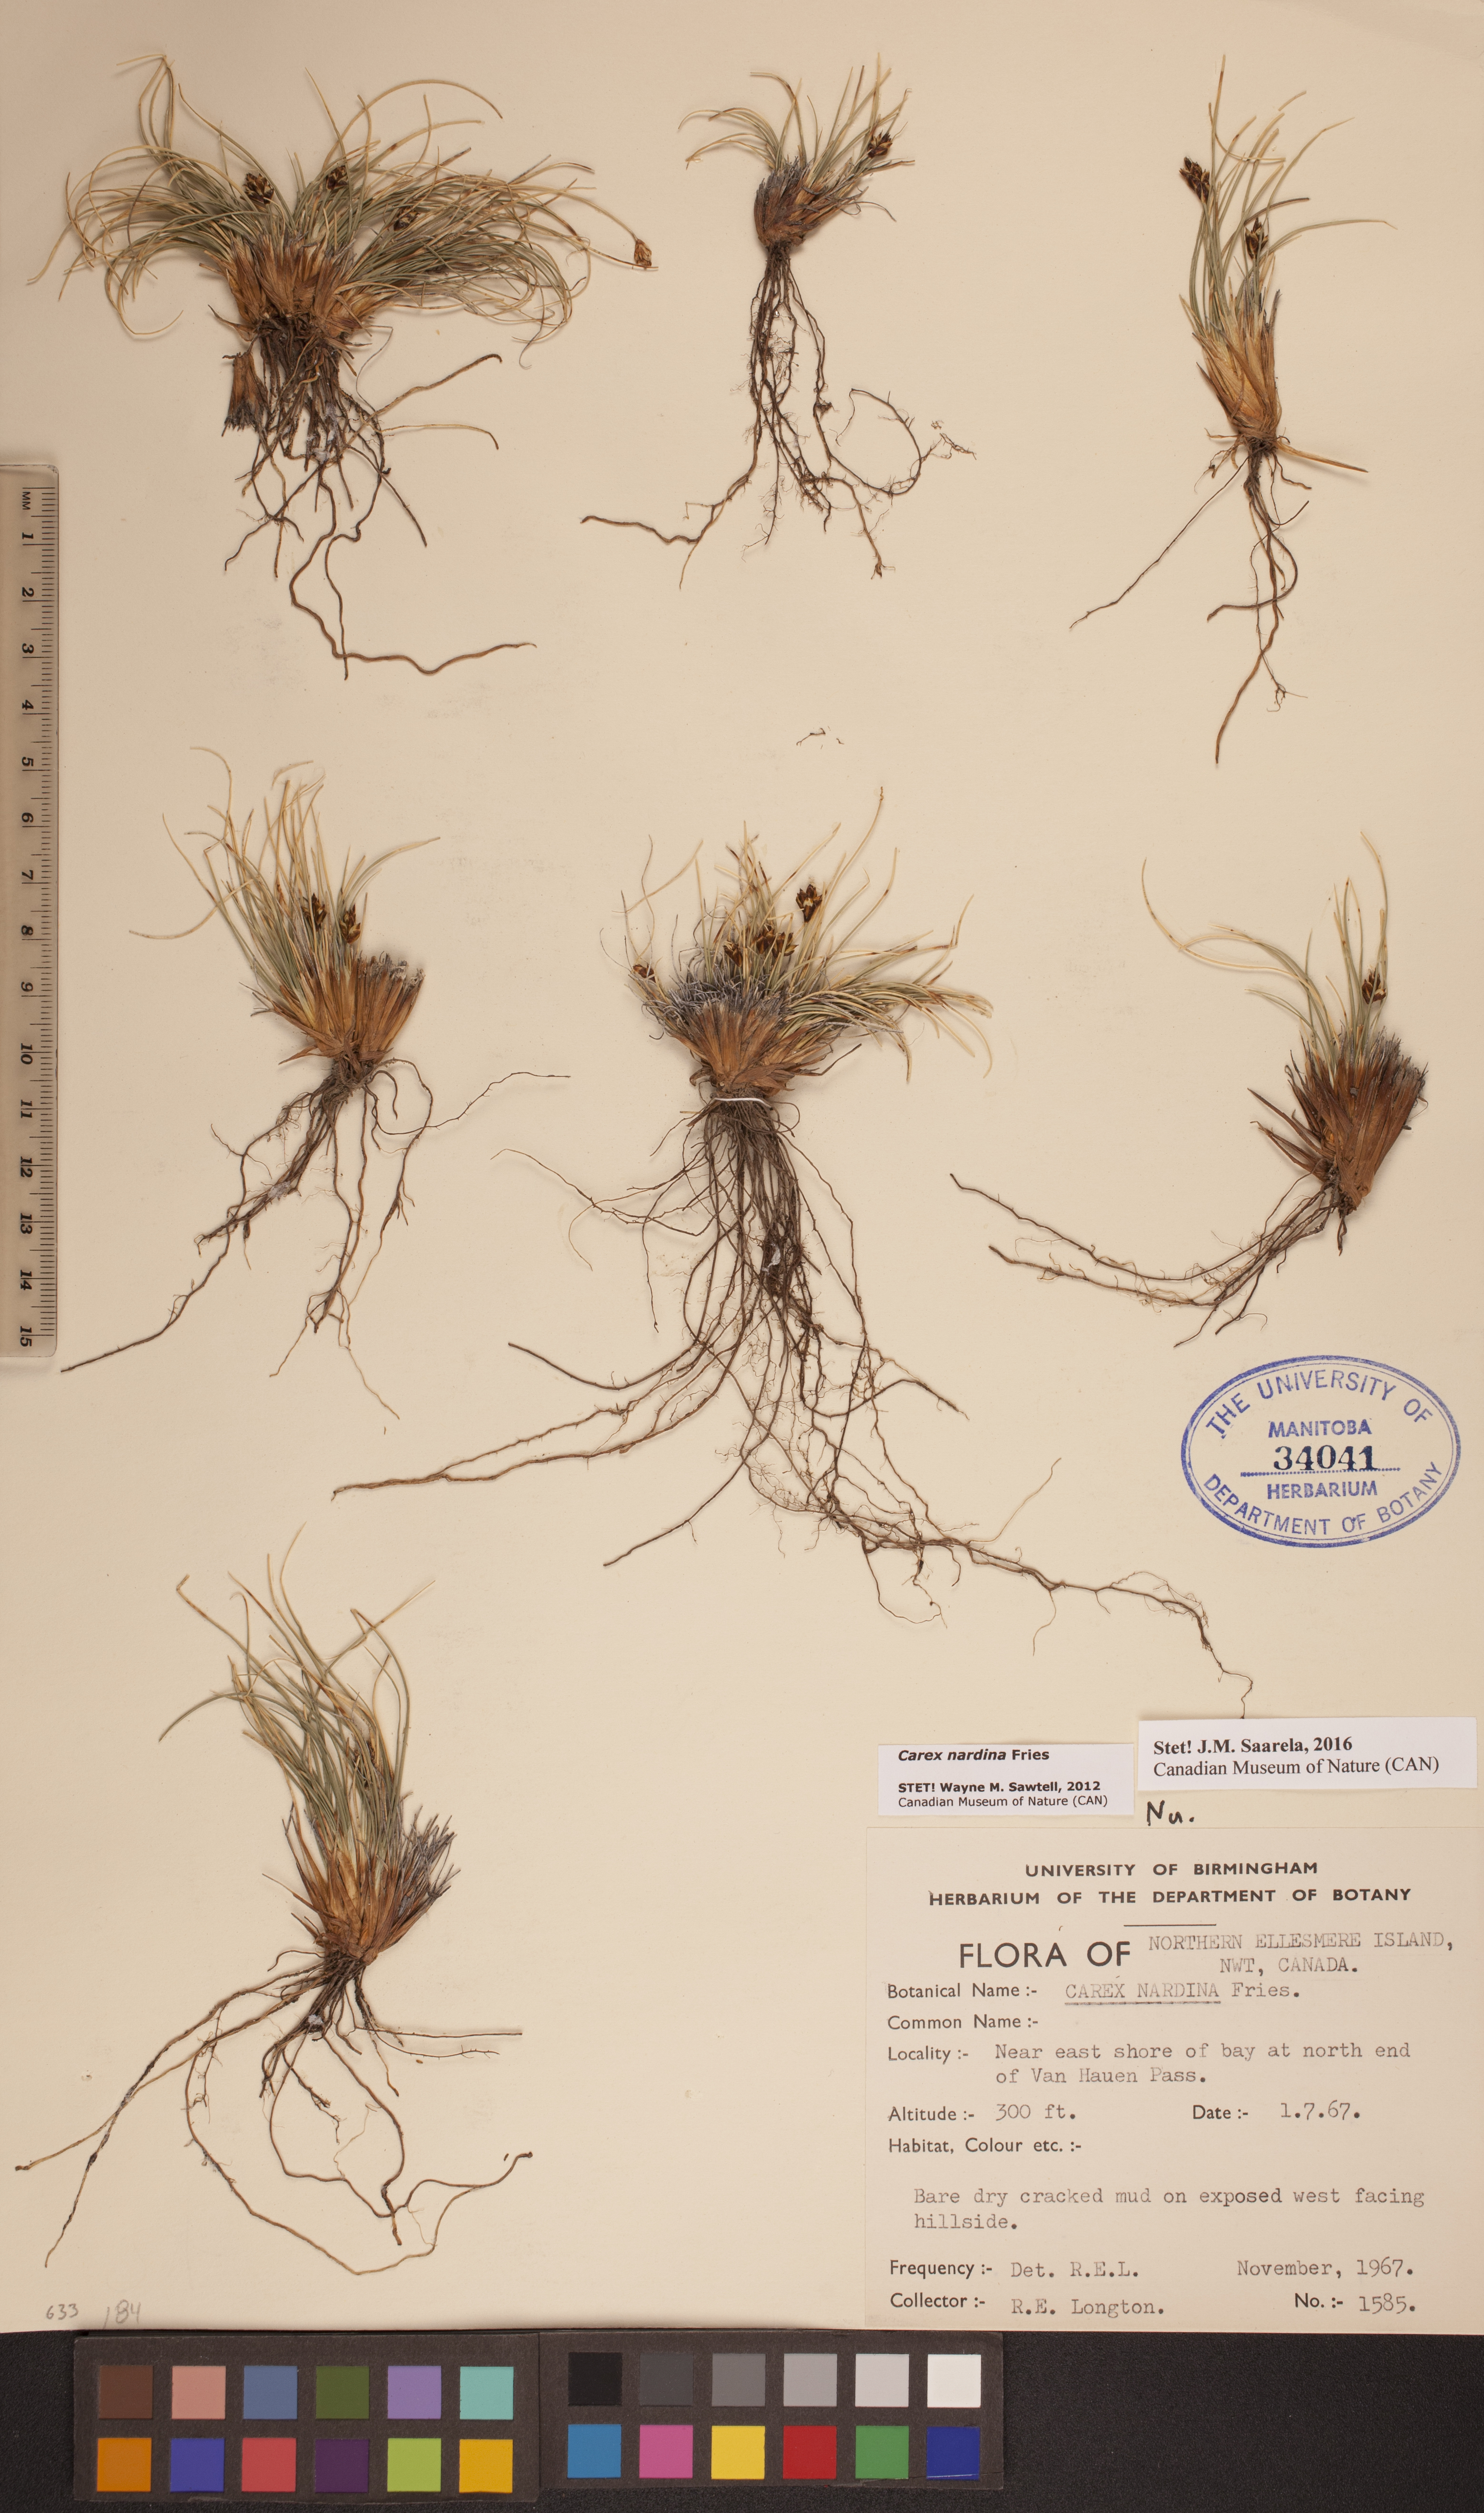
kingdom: Plantae
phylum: Tracheophyta
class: Liliopsida
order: Poales
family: Cyperaceae
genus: Carex
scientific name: Carex nardina
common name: Nard sedge
